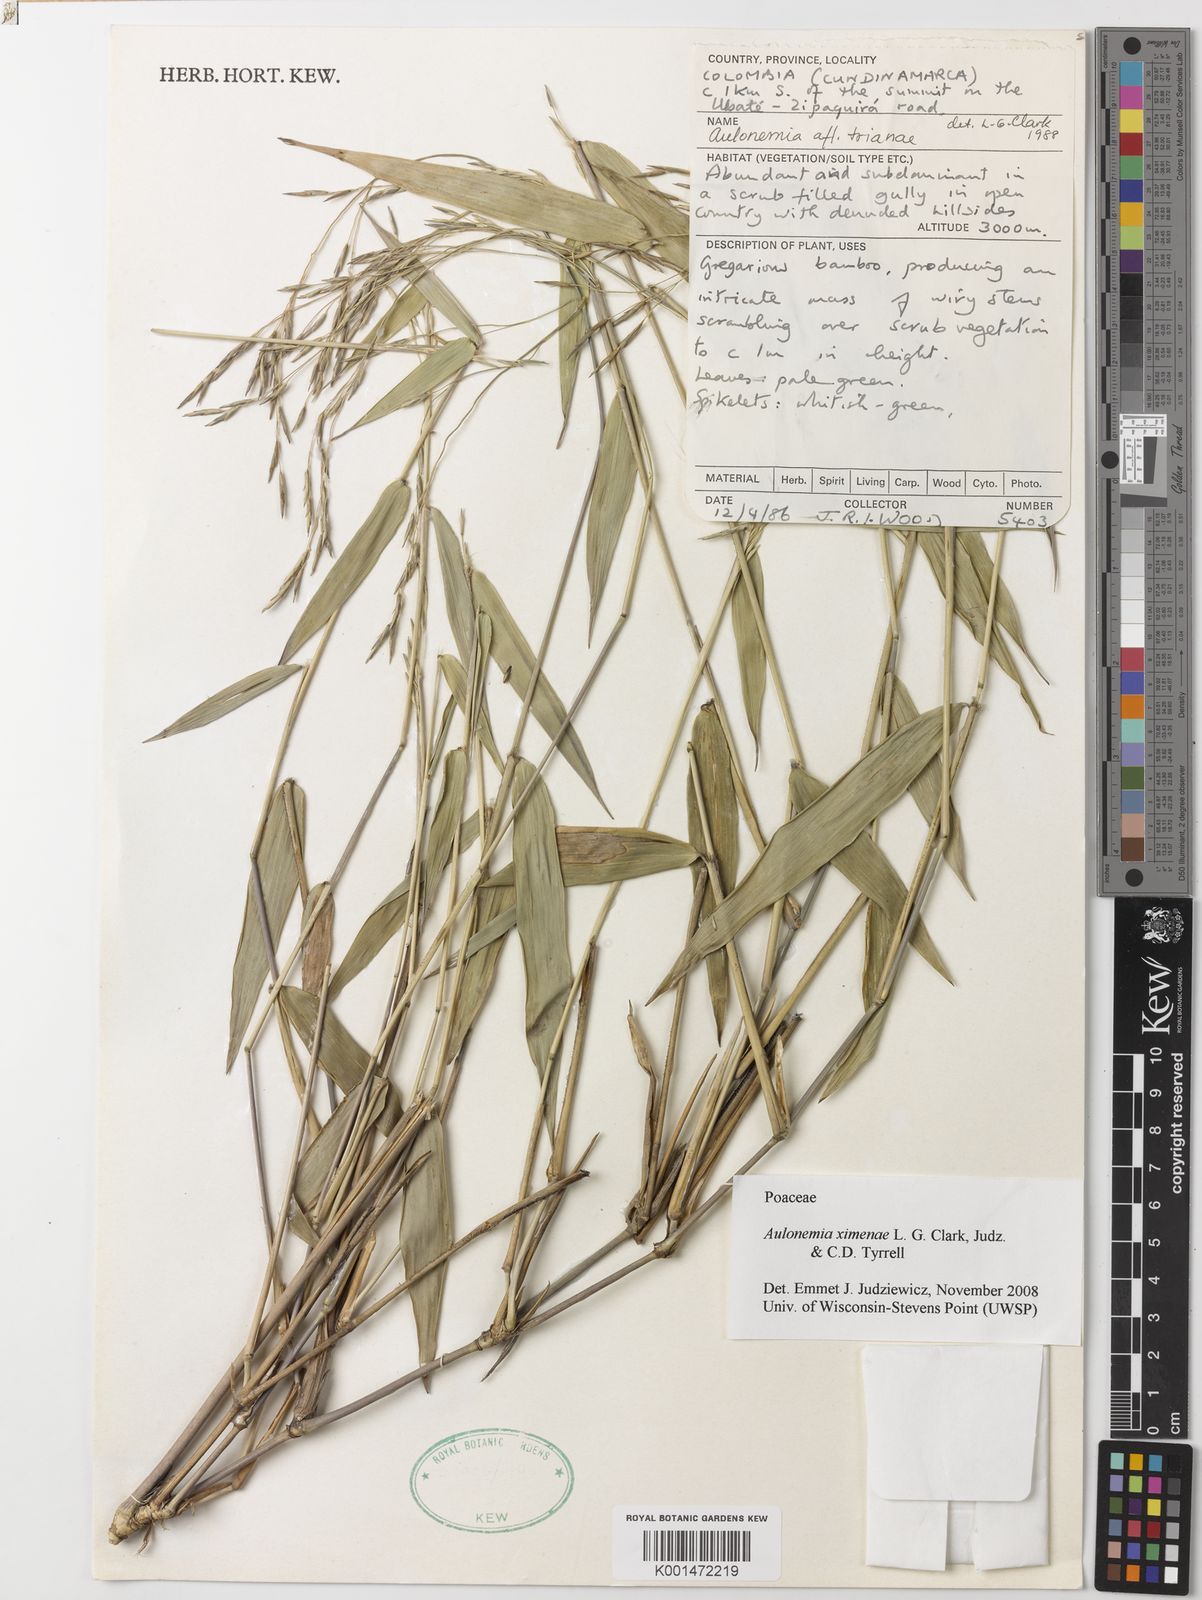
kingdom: Plantae
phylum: Tracheophyta
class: Liliopsida
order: Poales
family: Poaceae
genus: Aulonemia
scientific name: Aulonemia ximenae
